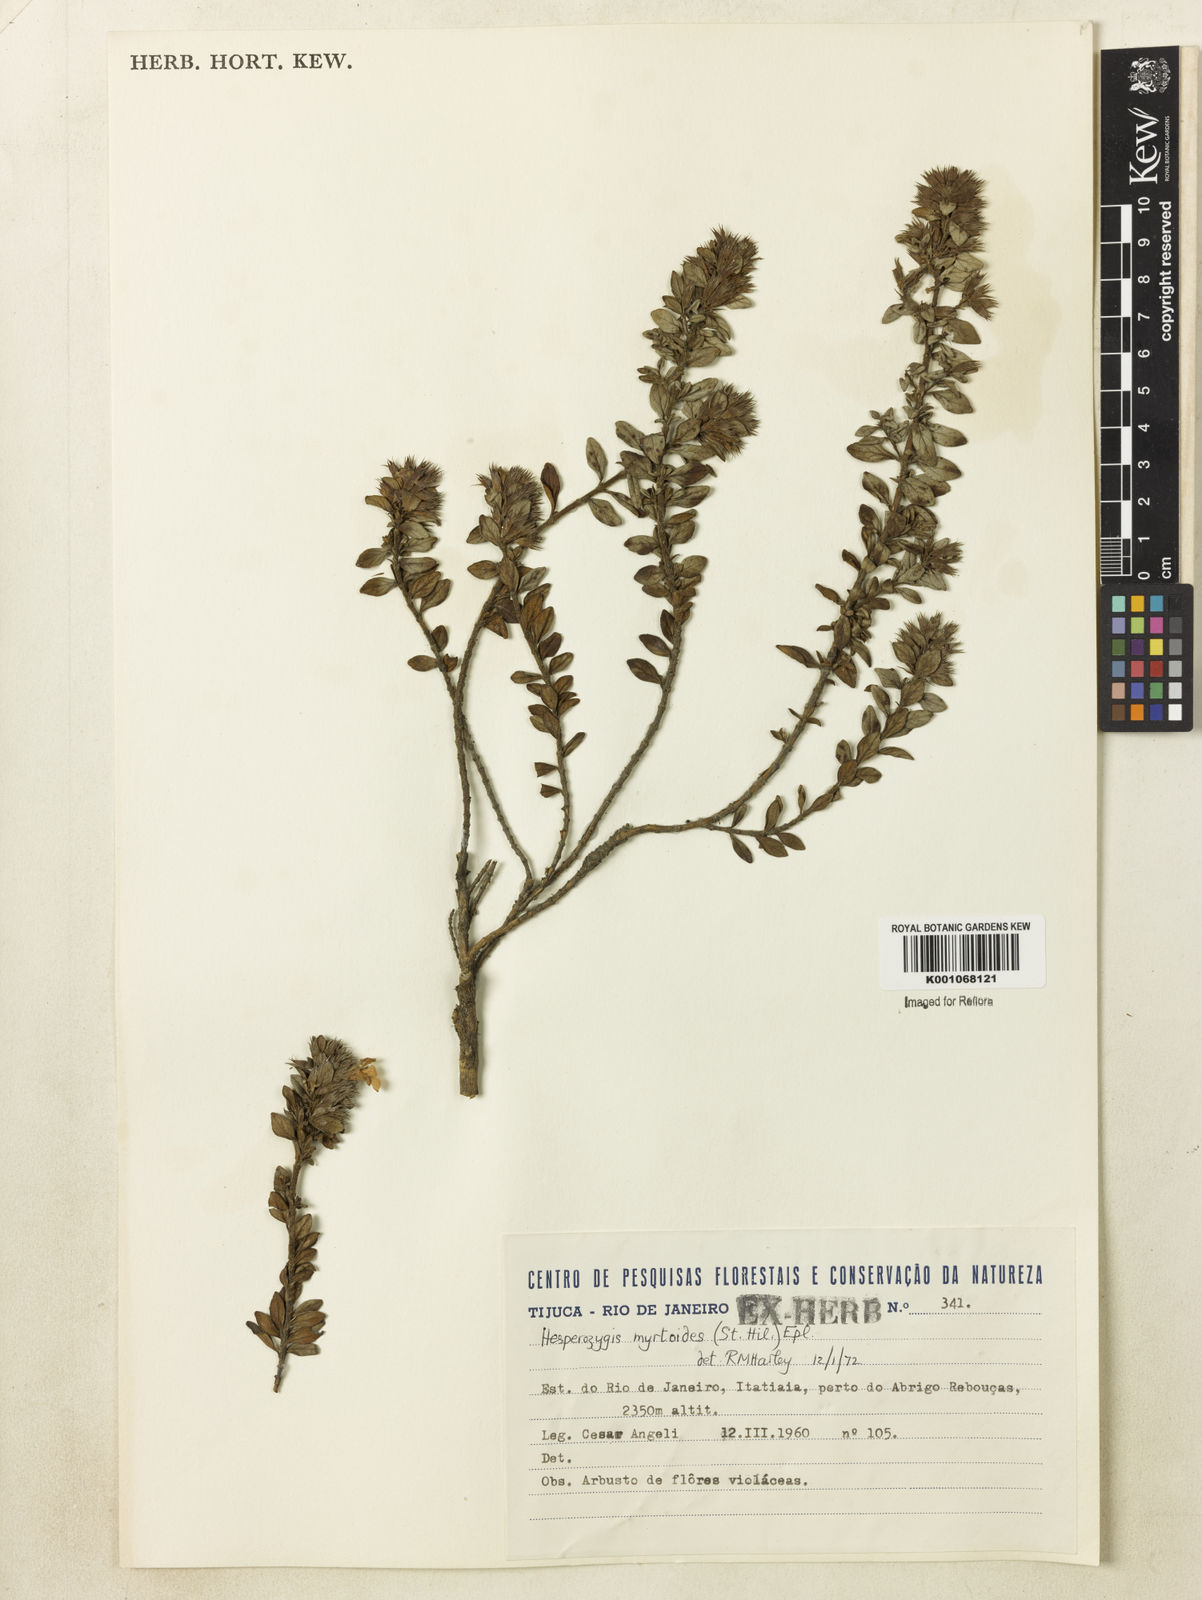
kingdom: Plantae
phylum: Tracheophyta
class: Magnoliopsida
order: Lamiales
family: Lamiaceae
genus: Hesperozygis
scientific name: Hesperozygis myrtoides
